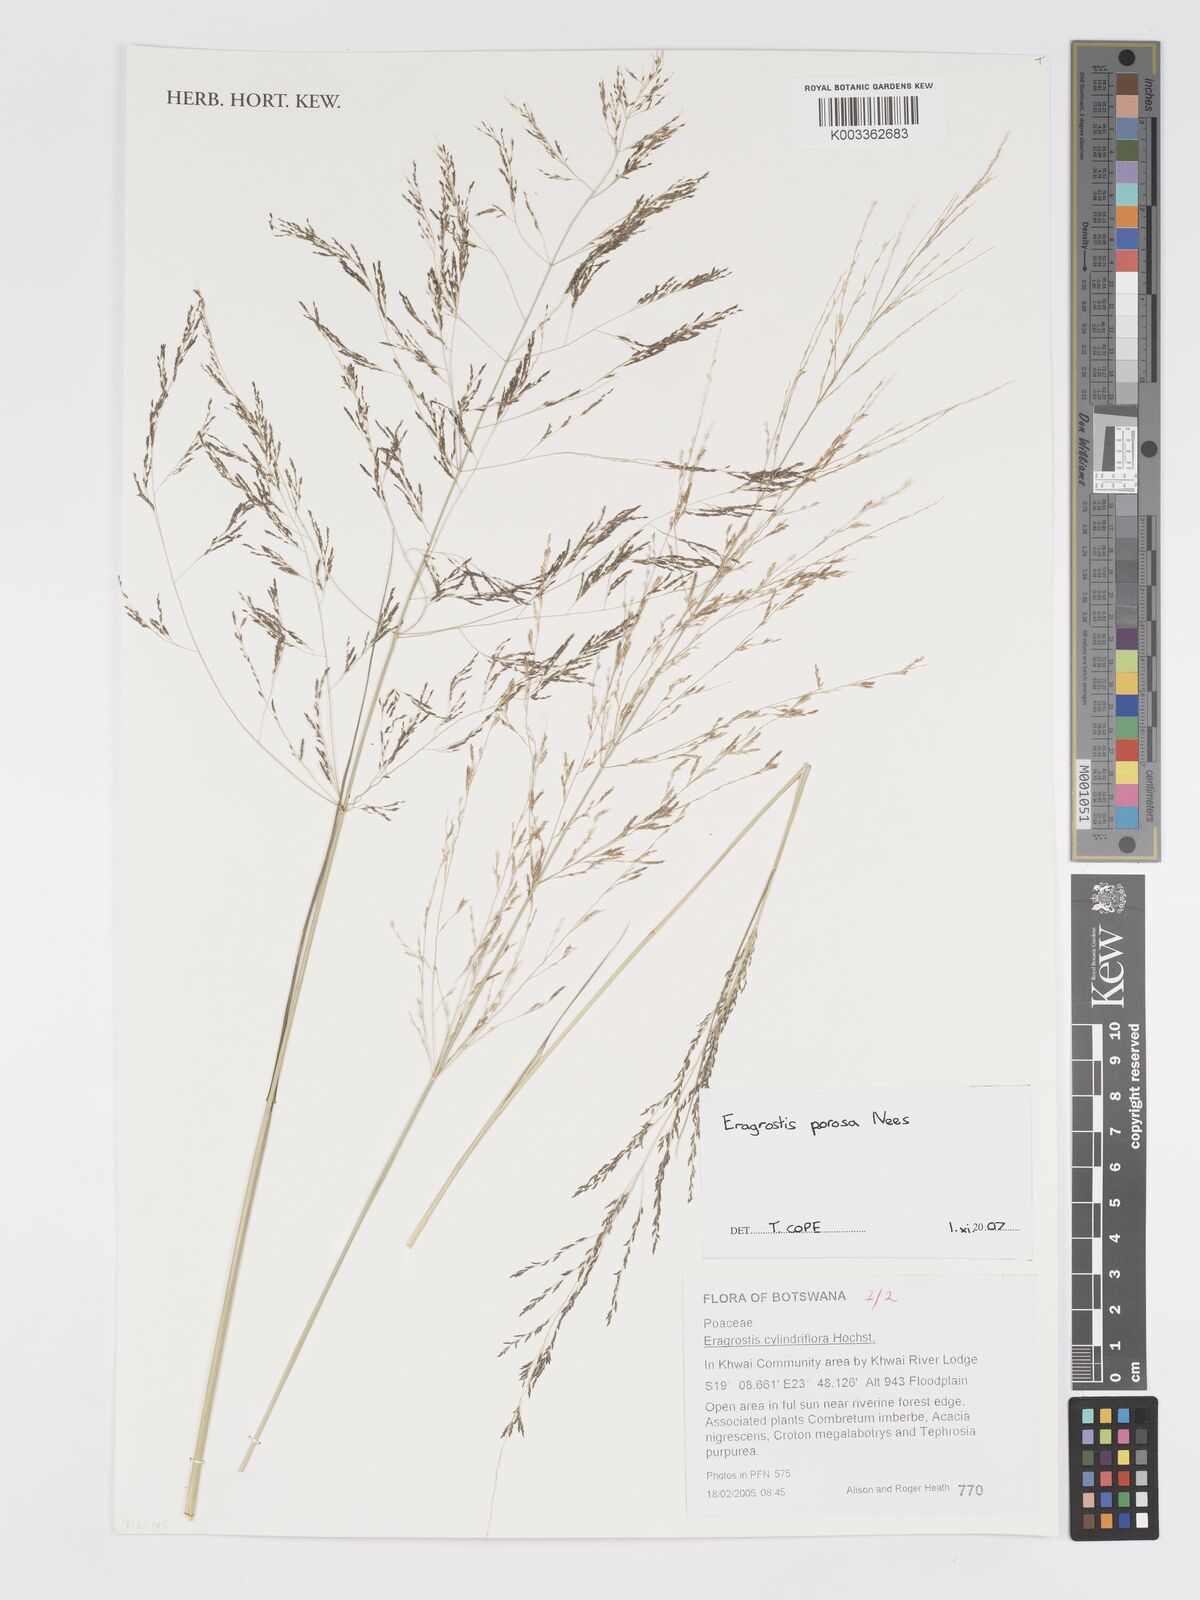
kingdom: Plantae
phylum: Tracheophyta
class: Liliopsida
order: Poales
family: Poaceae
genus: Eragrostis
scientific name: Eragrostis porosa
